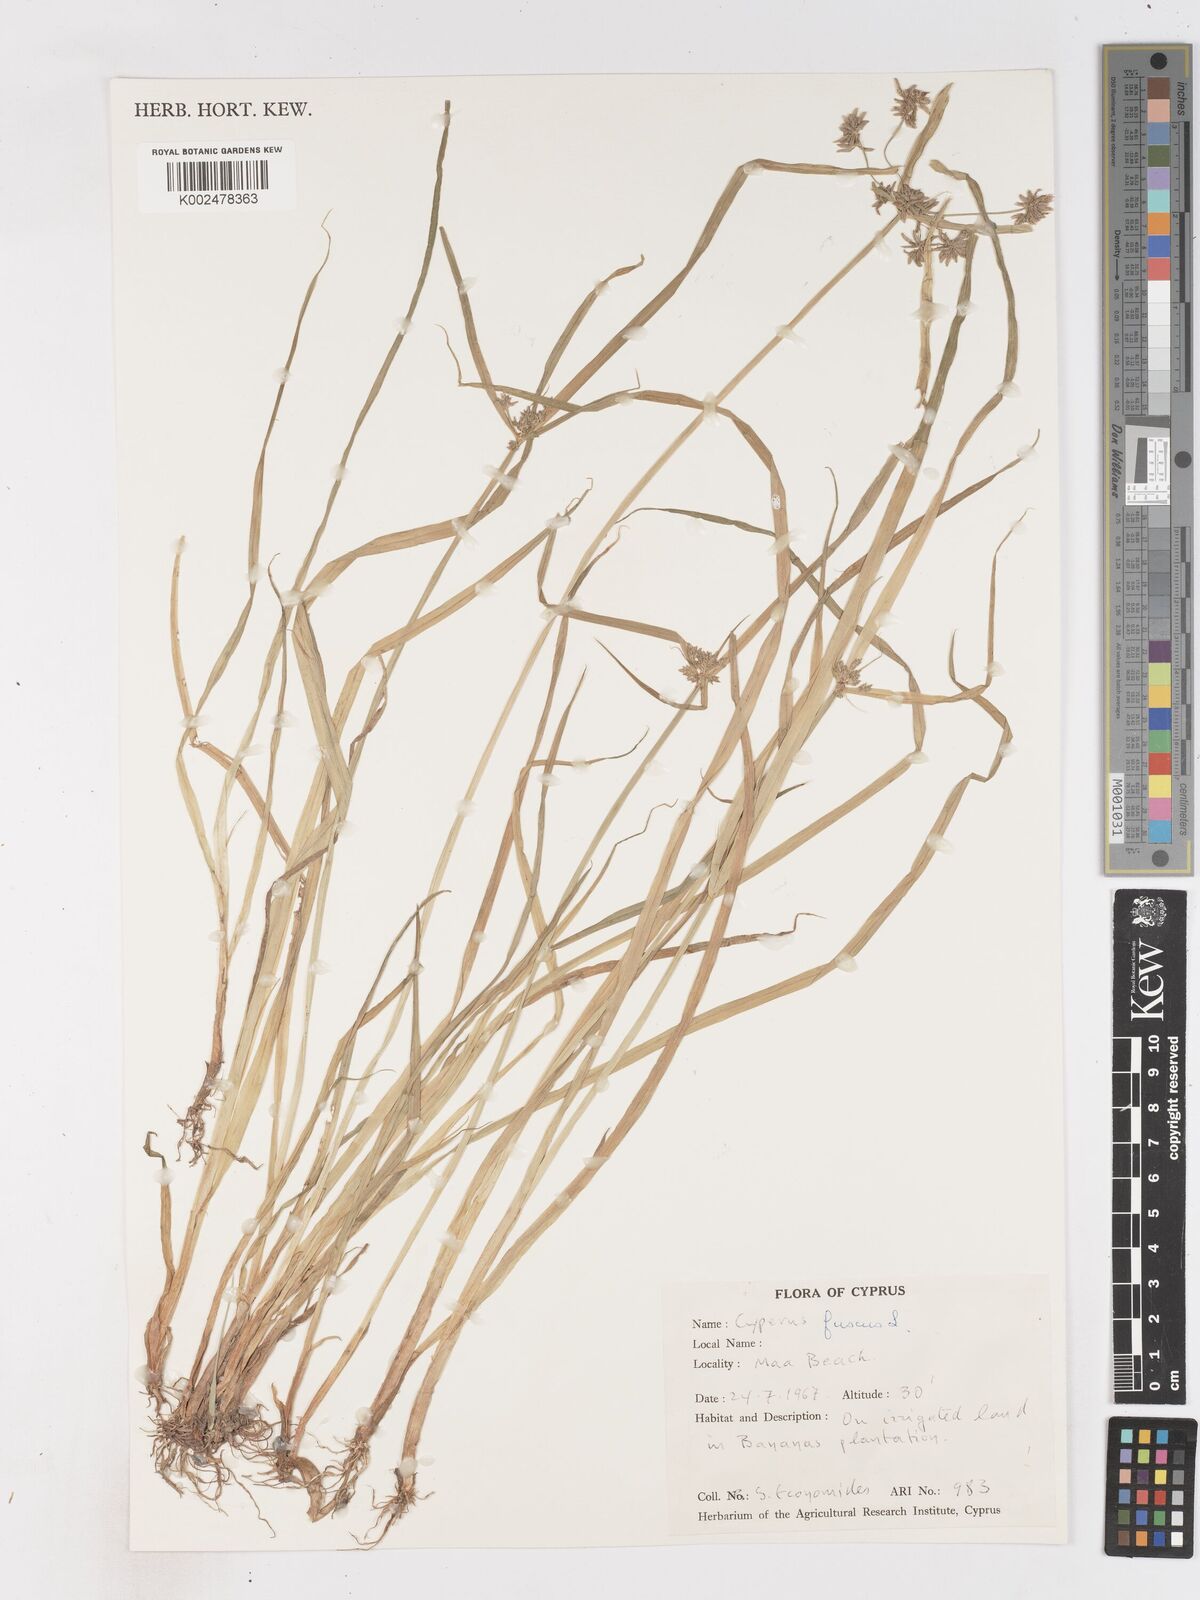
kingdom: Plantae
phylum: Tracheophyta
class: Liliopsida
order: Poales
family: Cyperaceae
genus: Cyperus
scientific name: Cyperus fuscus
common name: Brown galingale
